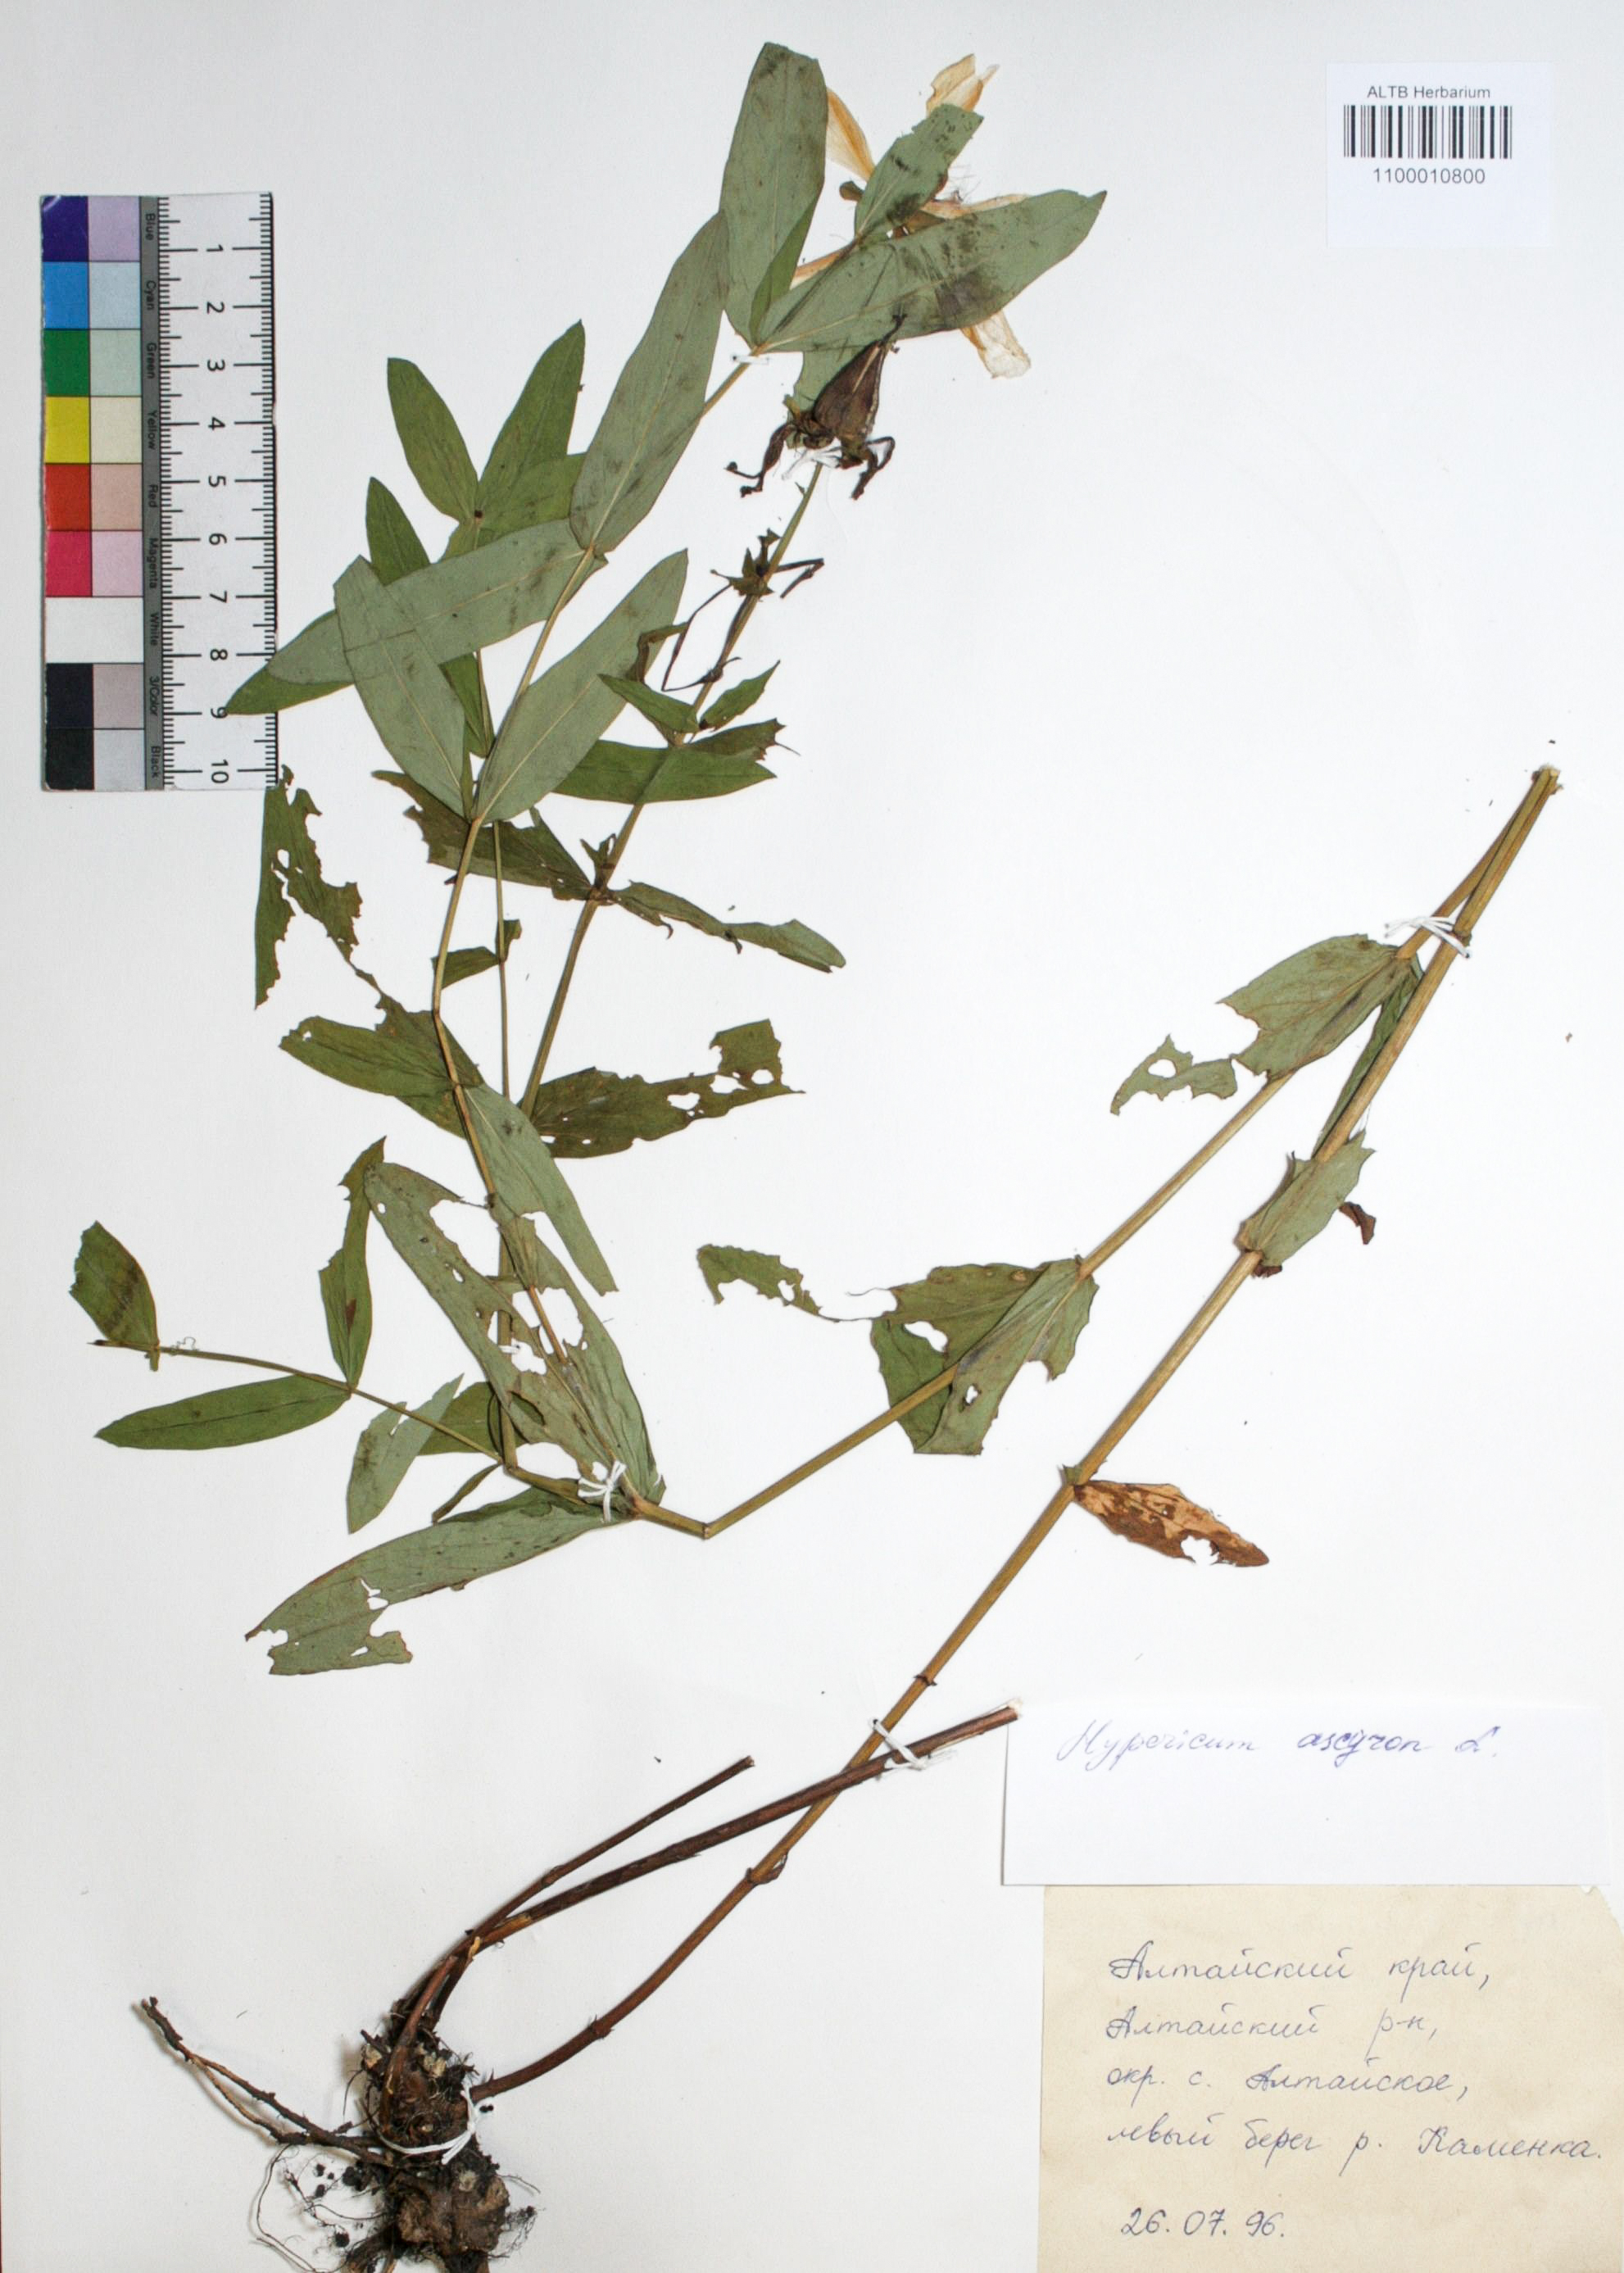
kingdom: Plantae
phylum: Tracheophyta
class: Magnoliopsida
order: Malpighiales
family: Hypericaceae
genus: Hypericum
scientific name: Hypericum ascyron
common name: Giant st. john's-wort
